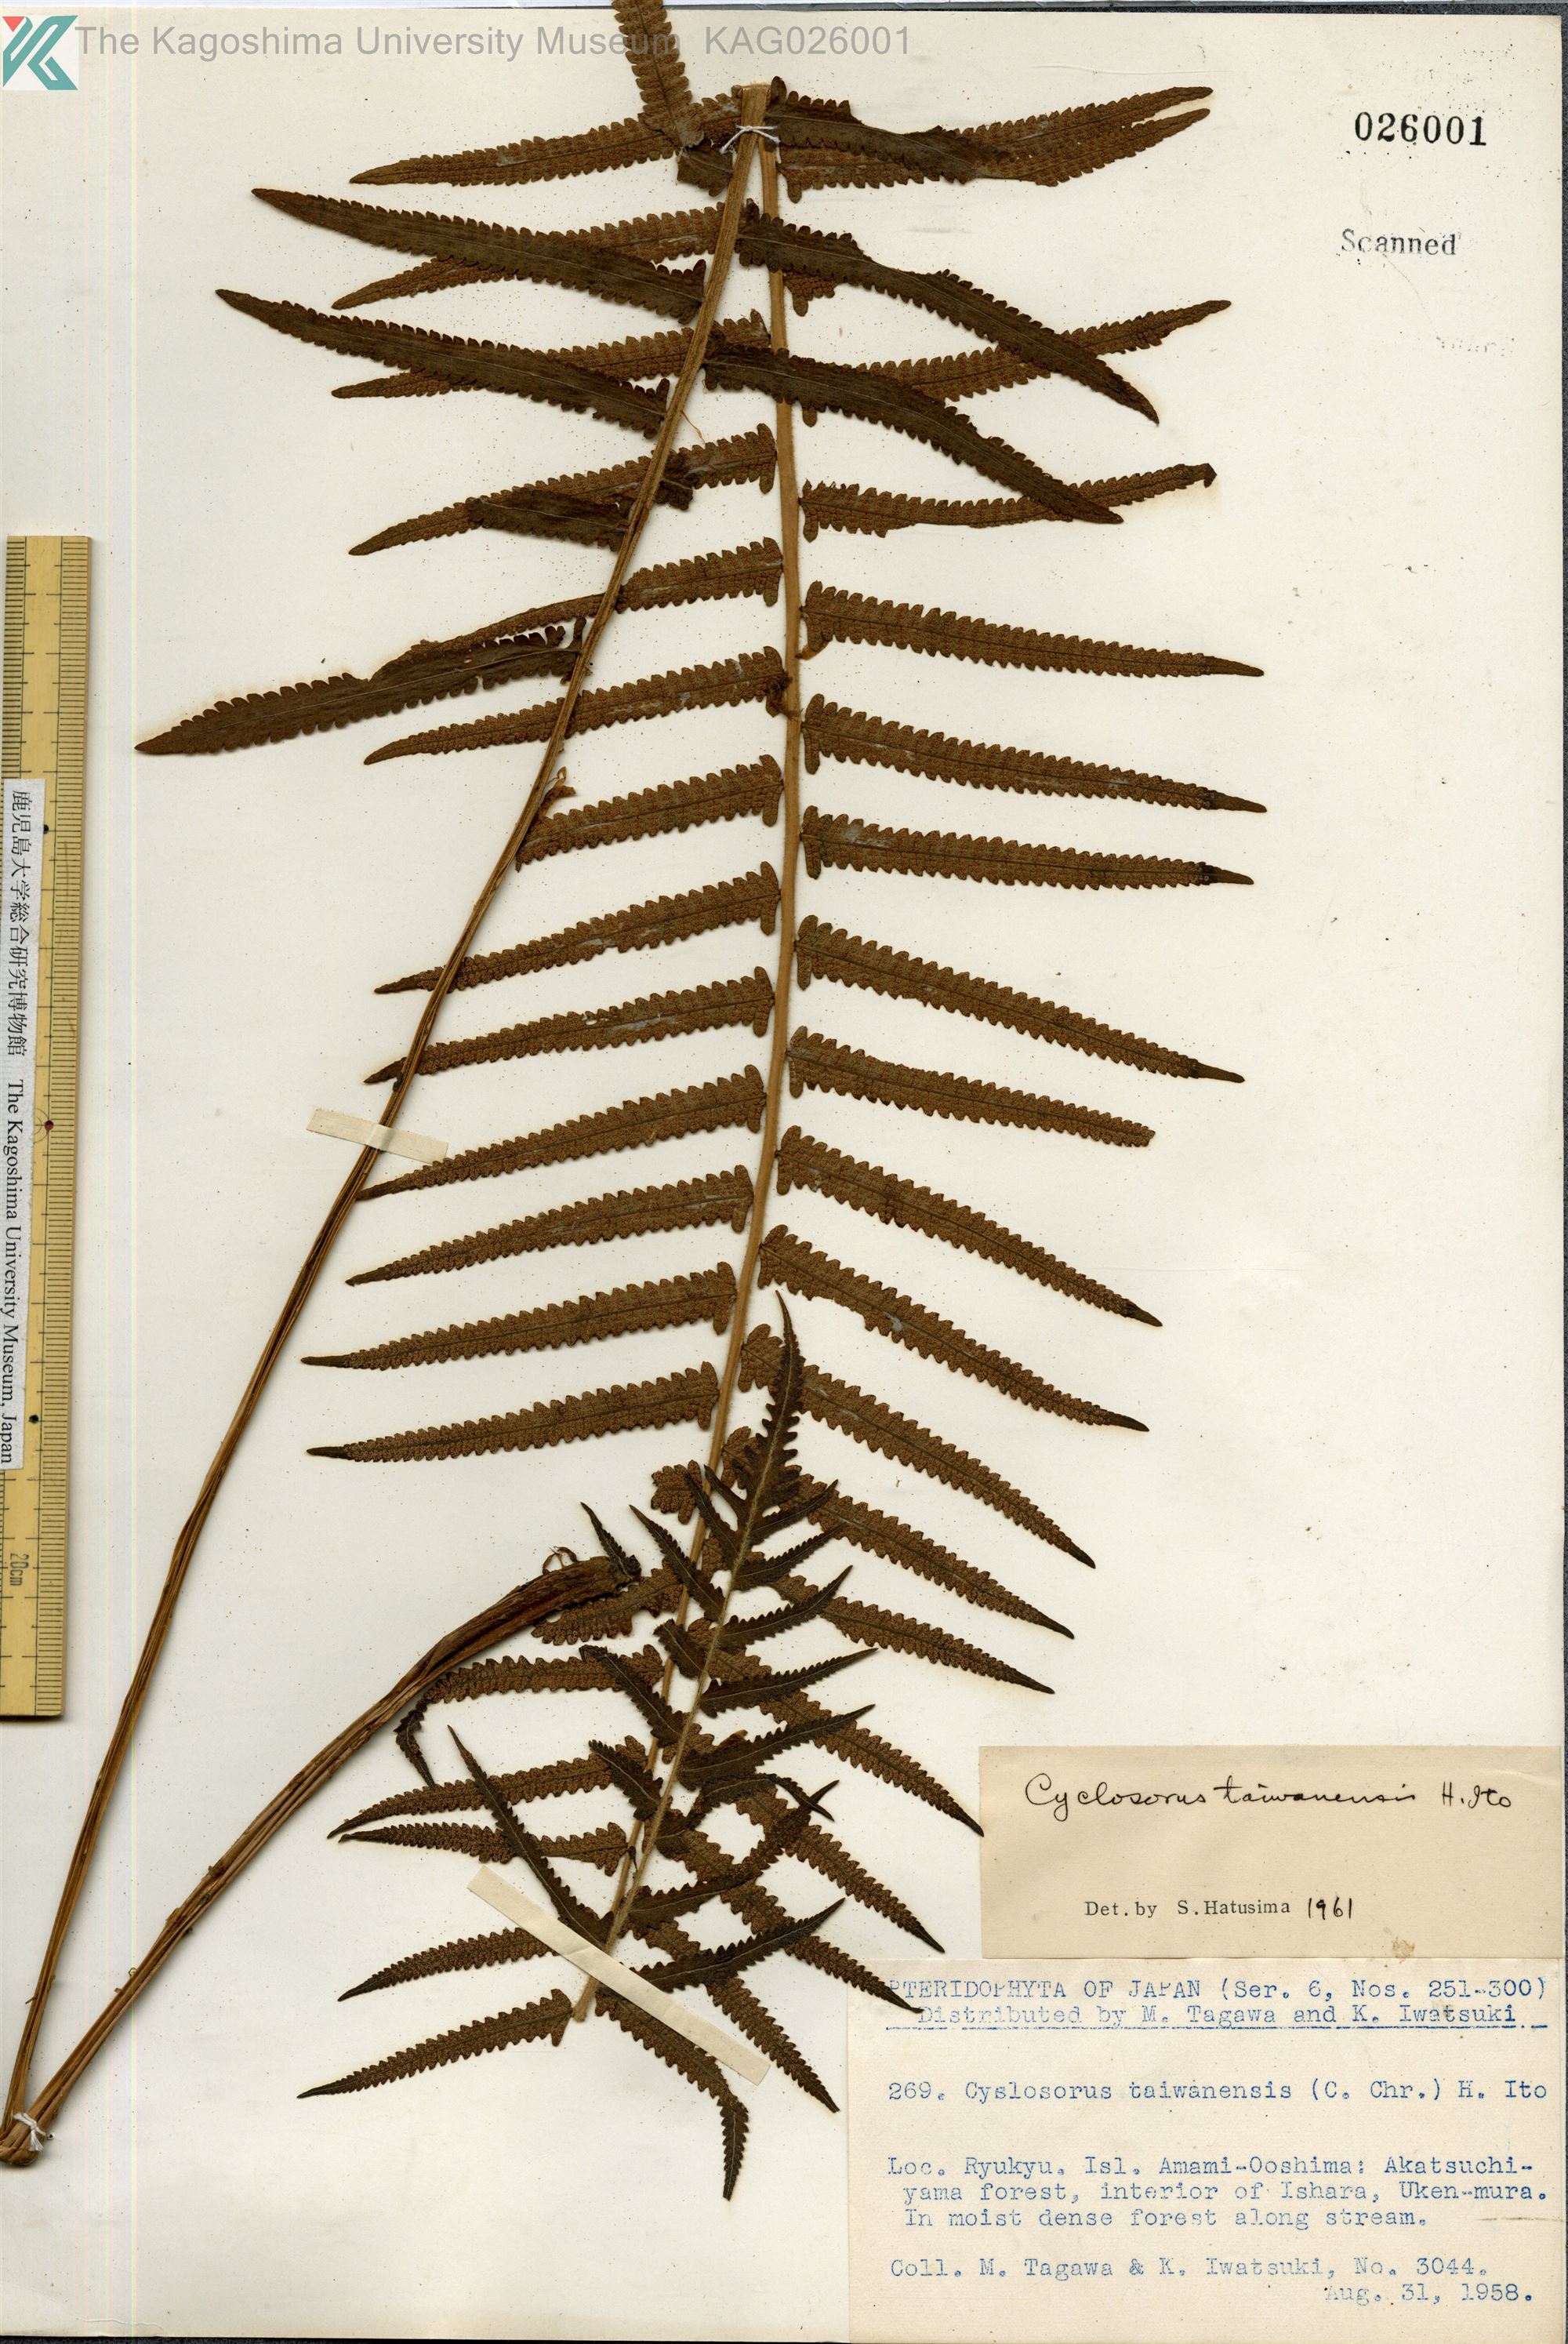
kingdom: Plantae
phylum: Tracheophyta
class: Polypodiopsida
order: Polypodiales
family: Thelypteridaceae
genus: Sphaerostephanos
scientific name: Sphaerostephanos taiwanensis
